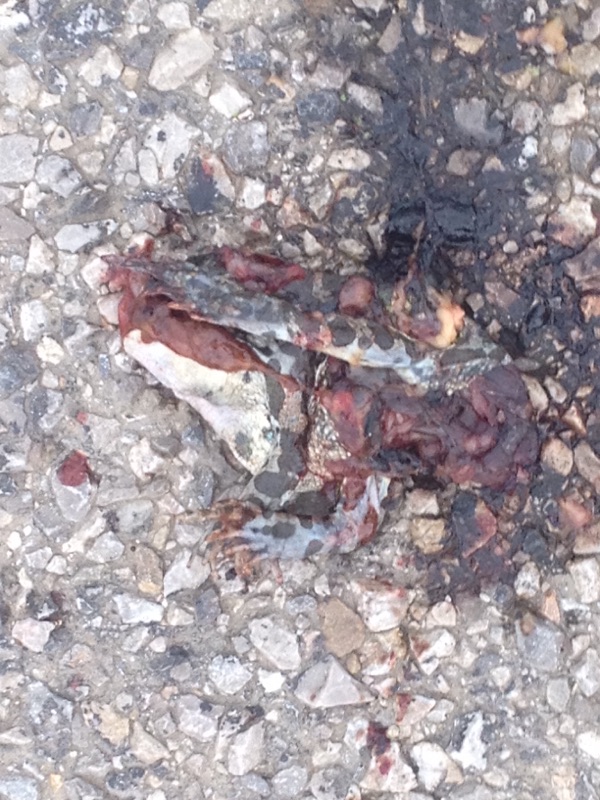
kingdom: Animalia
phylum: Chordata
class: Amphibia
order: Anura
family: Bufonidae
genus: Bufotes
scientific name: Bufotes viridis
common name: European green toad
